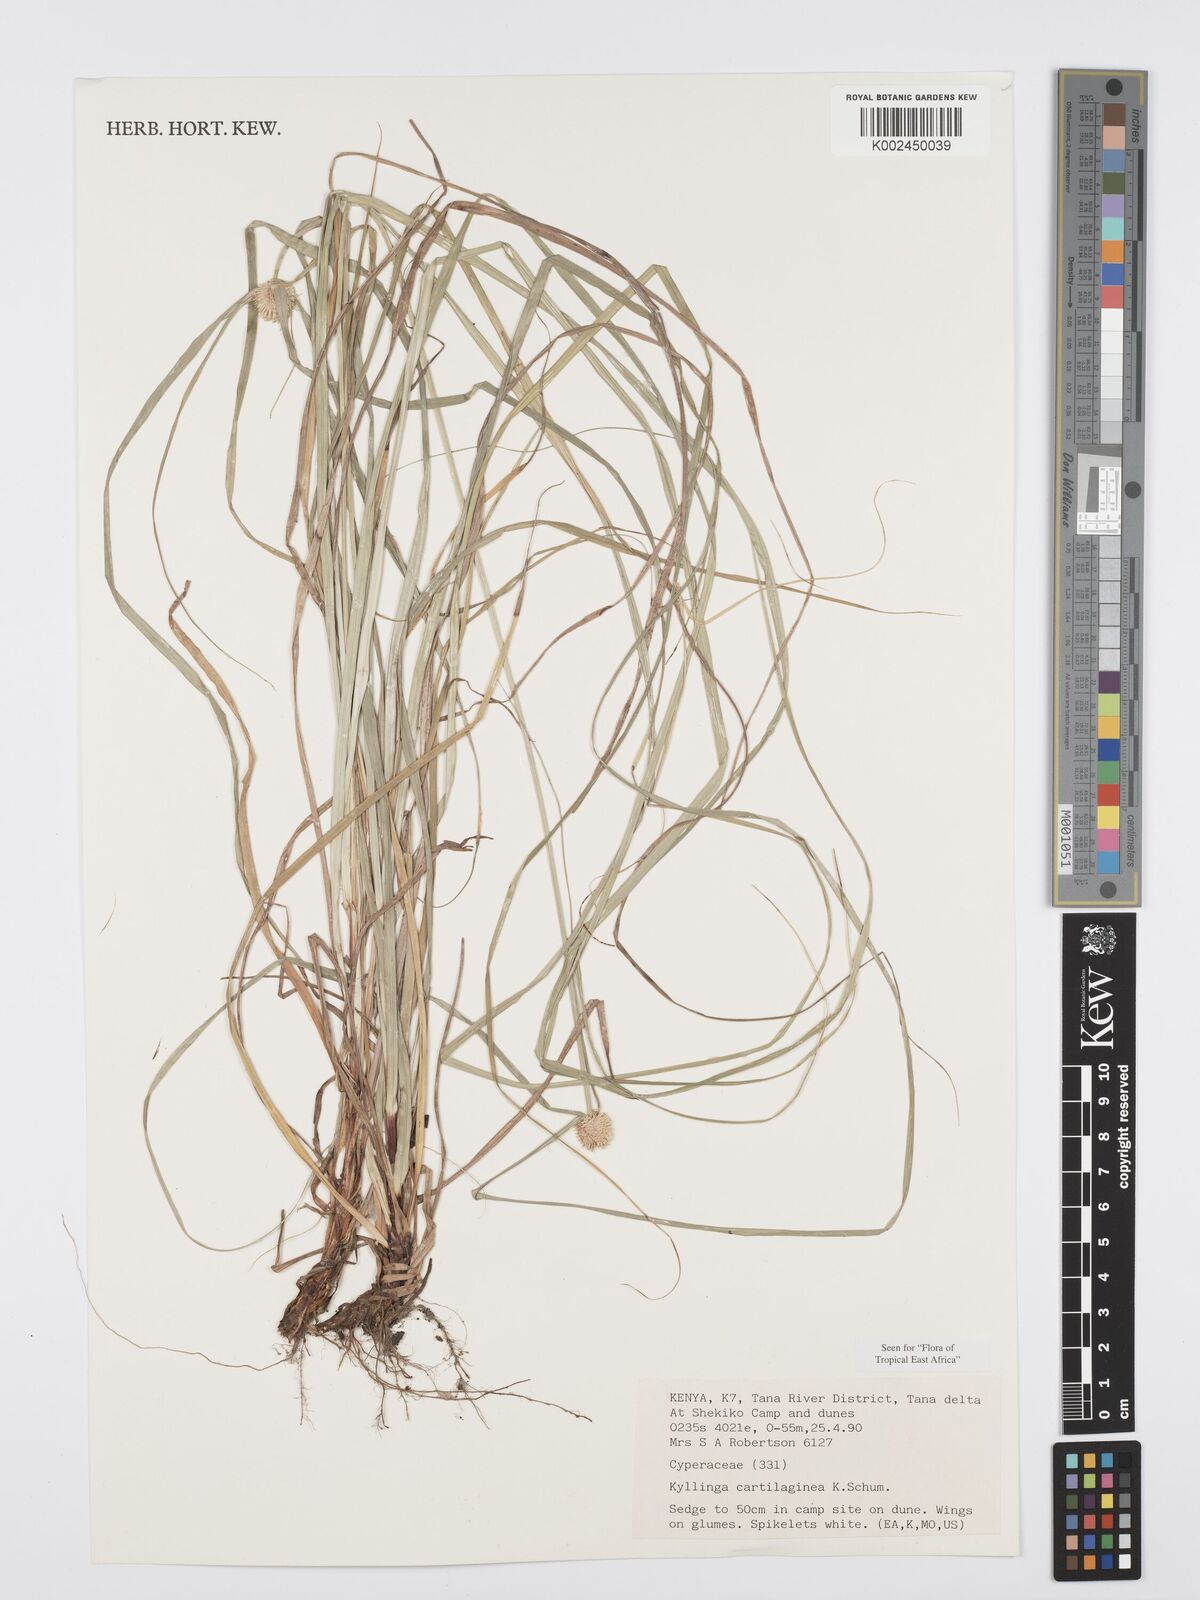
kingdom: Plantae
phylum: Tracheophyta
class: Liliopsida
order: Poales
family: Cyperaceae
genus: Cyperus
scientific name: Cyperus cartilagineus
